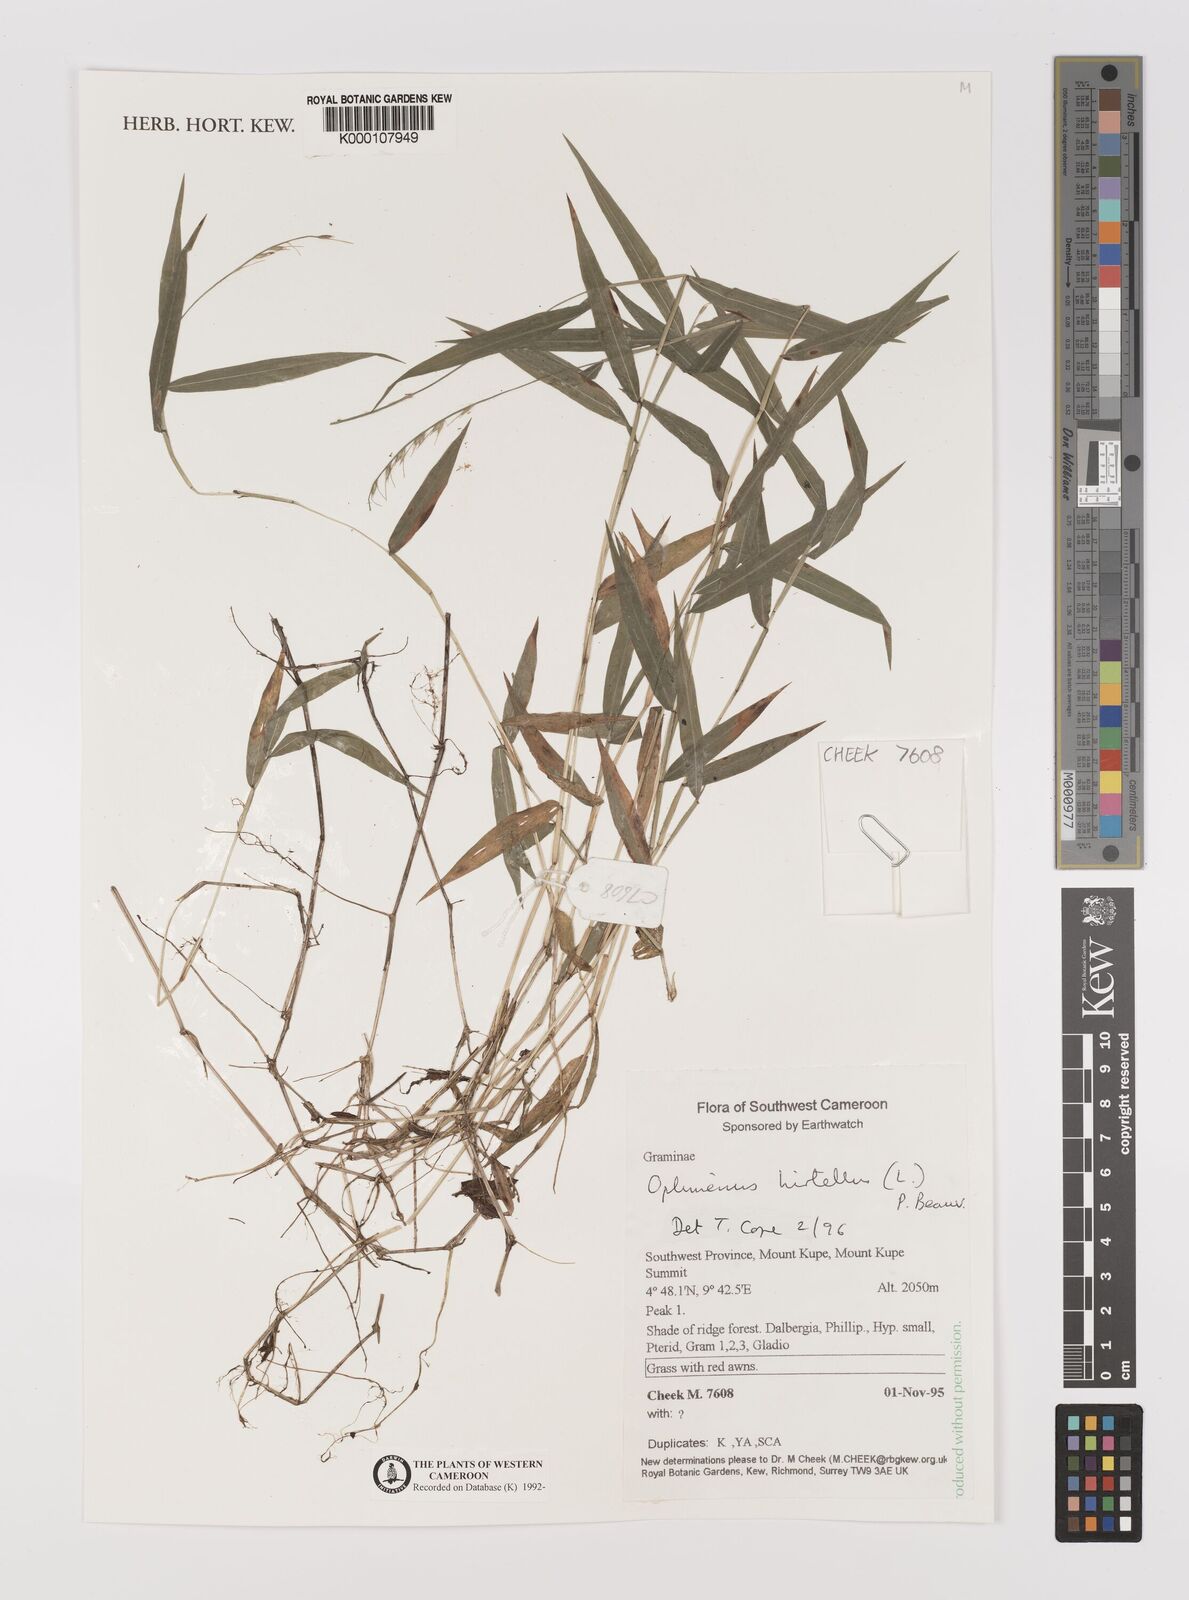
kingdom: Plantae
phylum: Tracheophyta
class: Liliopsida
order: Poales
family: Poaceae
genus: Oplismenus
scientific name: Oplismenus hirtellus
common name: Basketgrass
